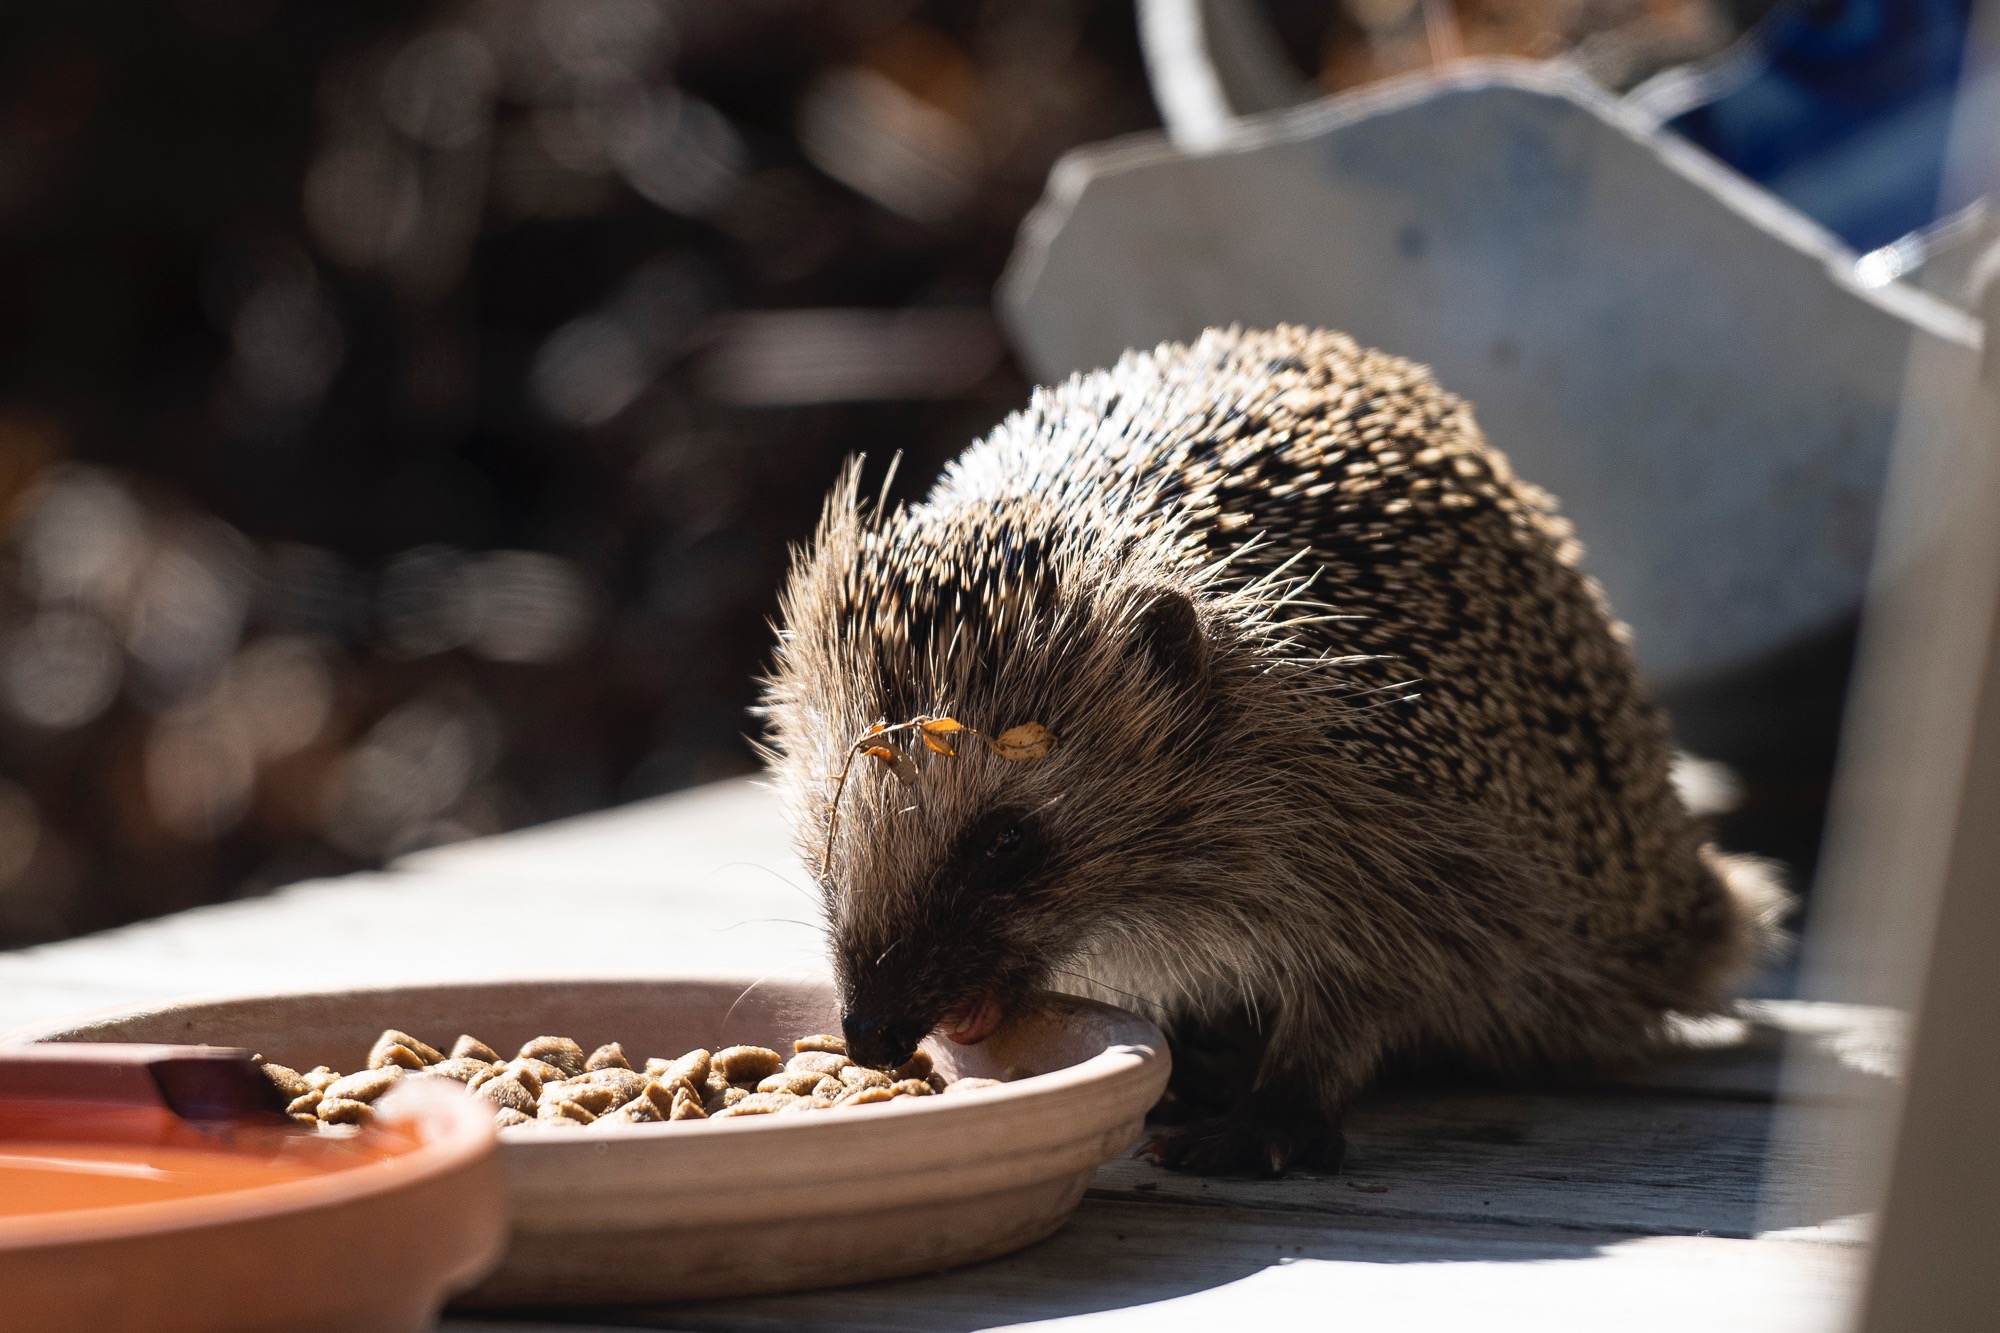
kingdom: Animalia
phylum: Chordata
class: Mammalia
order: Erinaceomorpha
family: Erinaceidae
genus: Erinaceus
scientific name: Erinaceus europaeus
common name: Pindsvin
